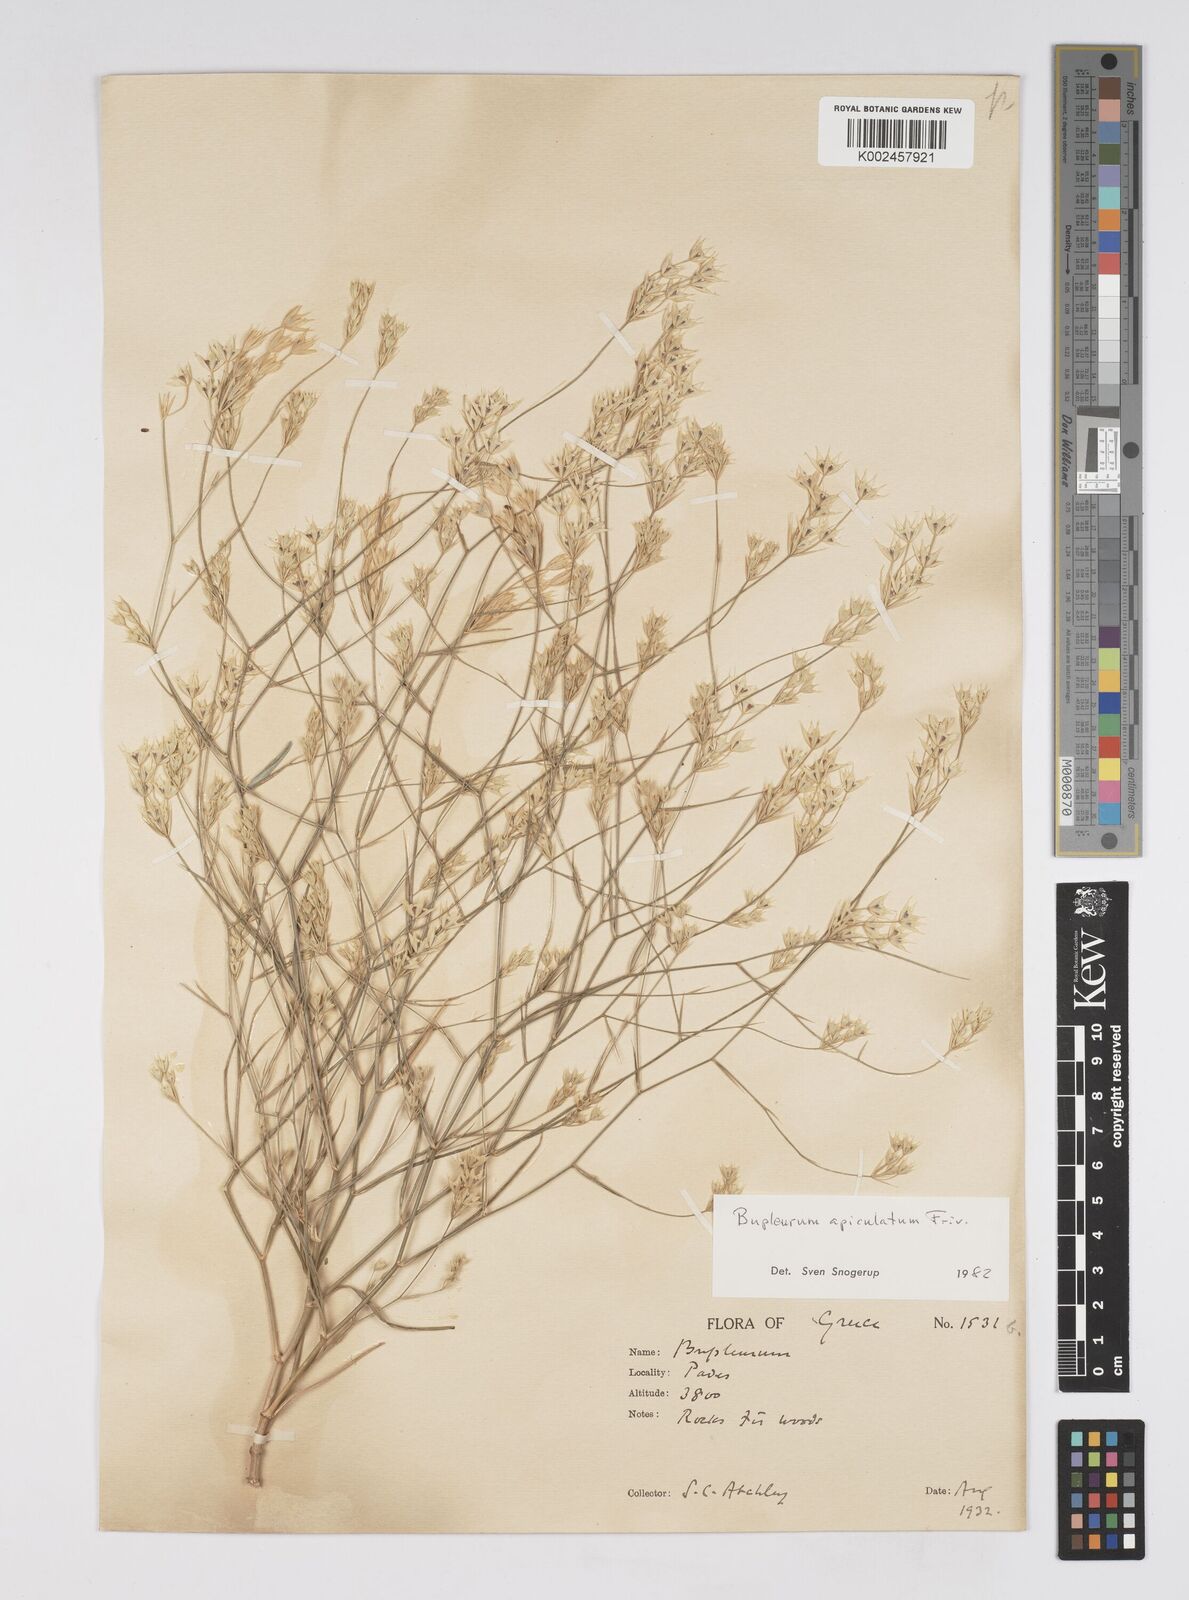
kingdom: Plantae
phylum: Tracheophyta
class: Magnoliopsida
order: Apiales
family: Apiaceae
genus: Bupleurum
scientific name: Bupleurum apiculatum
